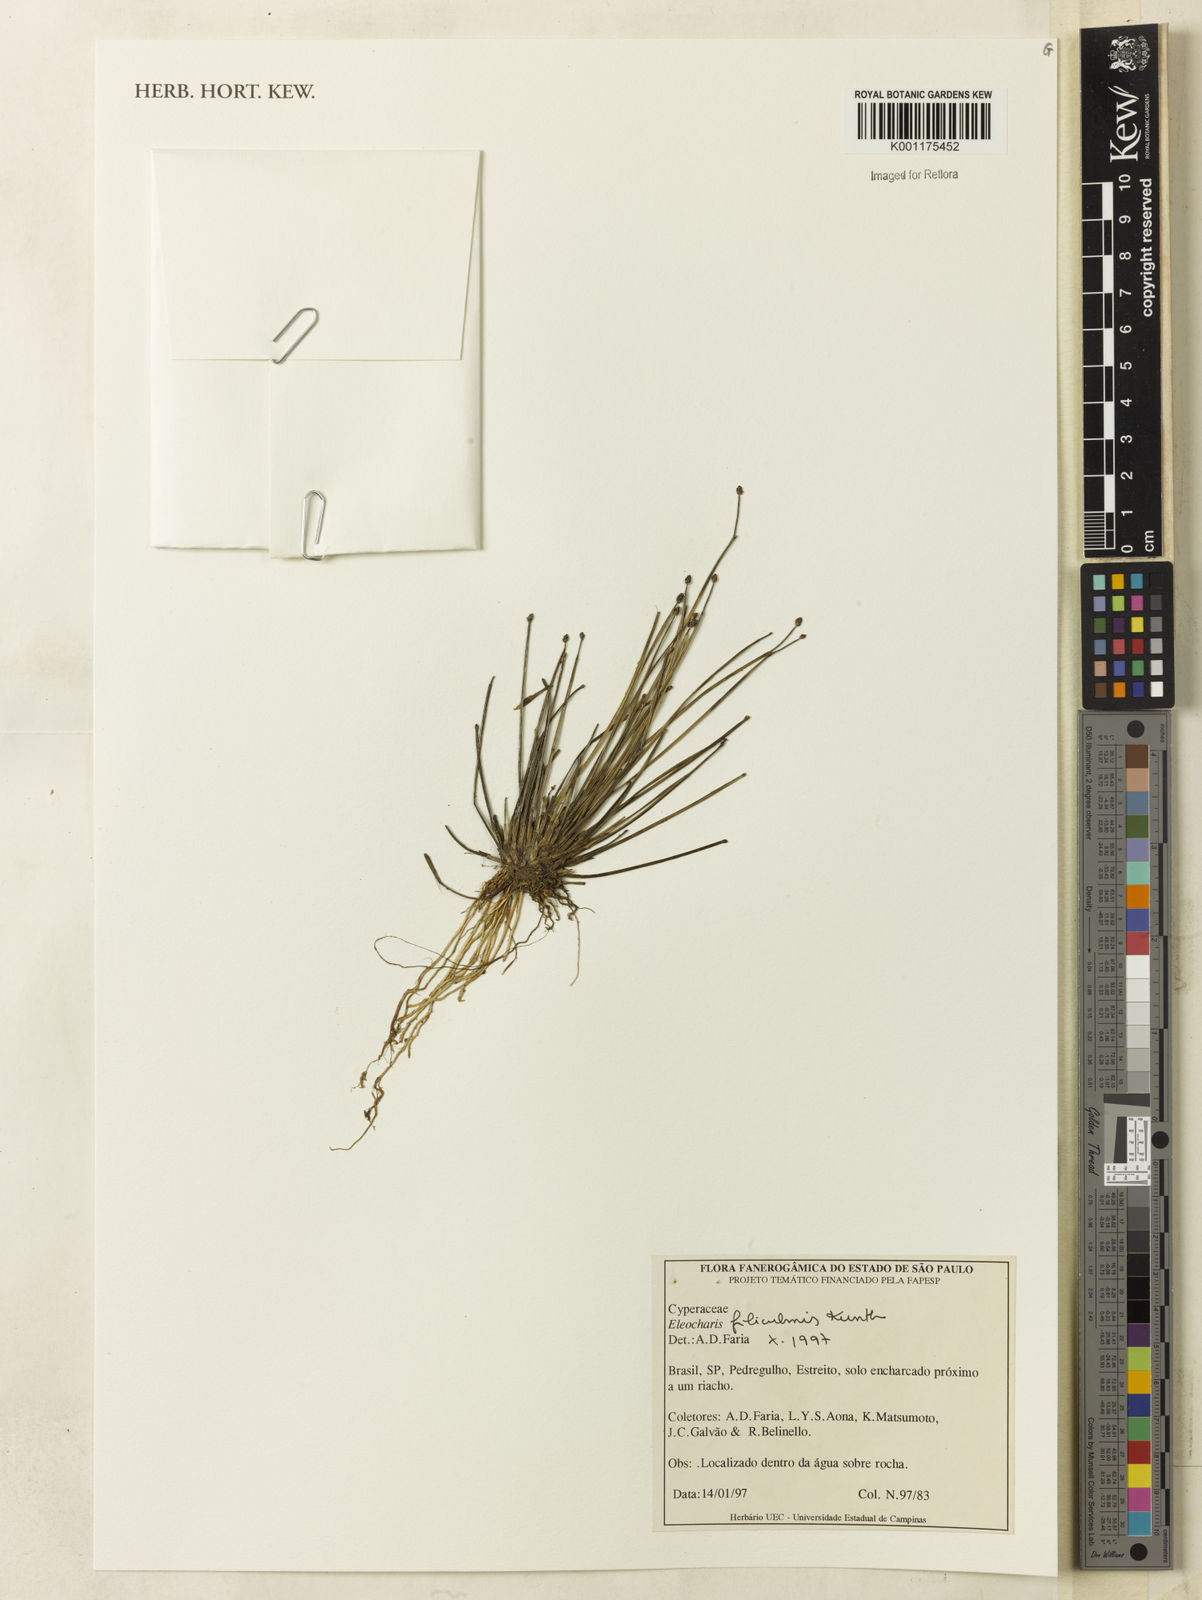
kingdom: Plantae
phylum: Tracheophyta
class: Liliopsida
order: Poales
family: Cyperaceae
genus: Eleocharis
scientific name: Eleocharis filiculmis
